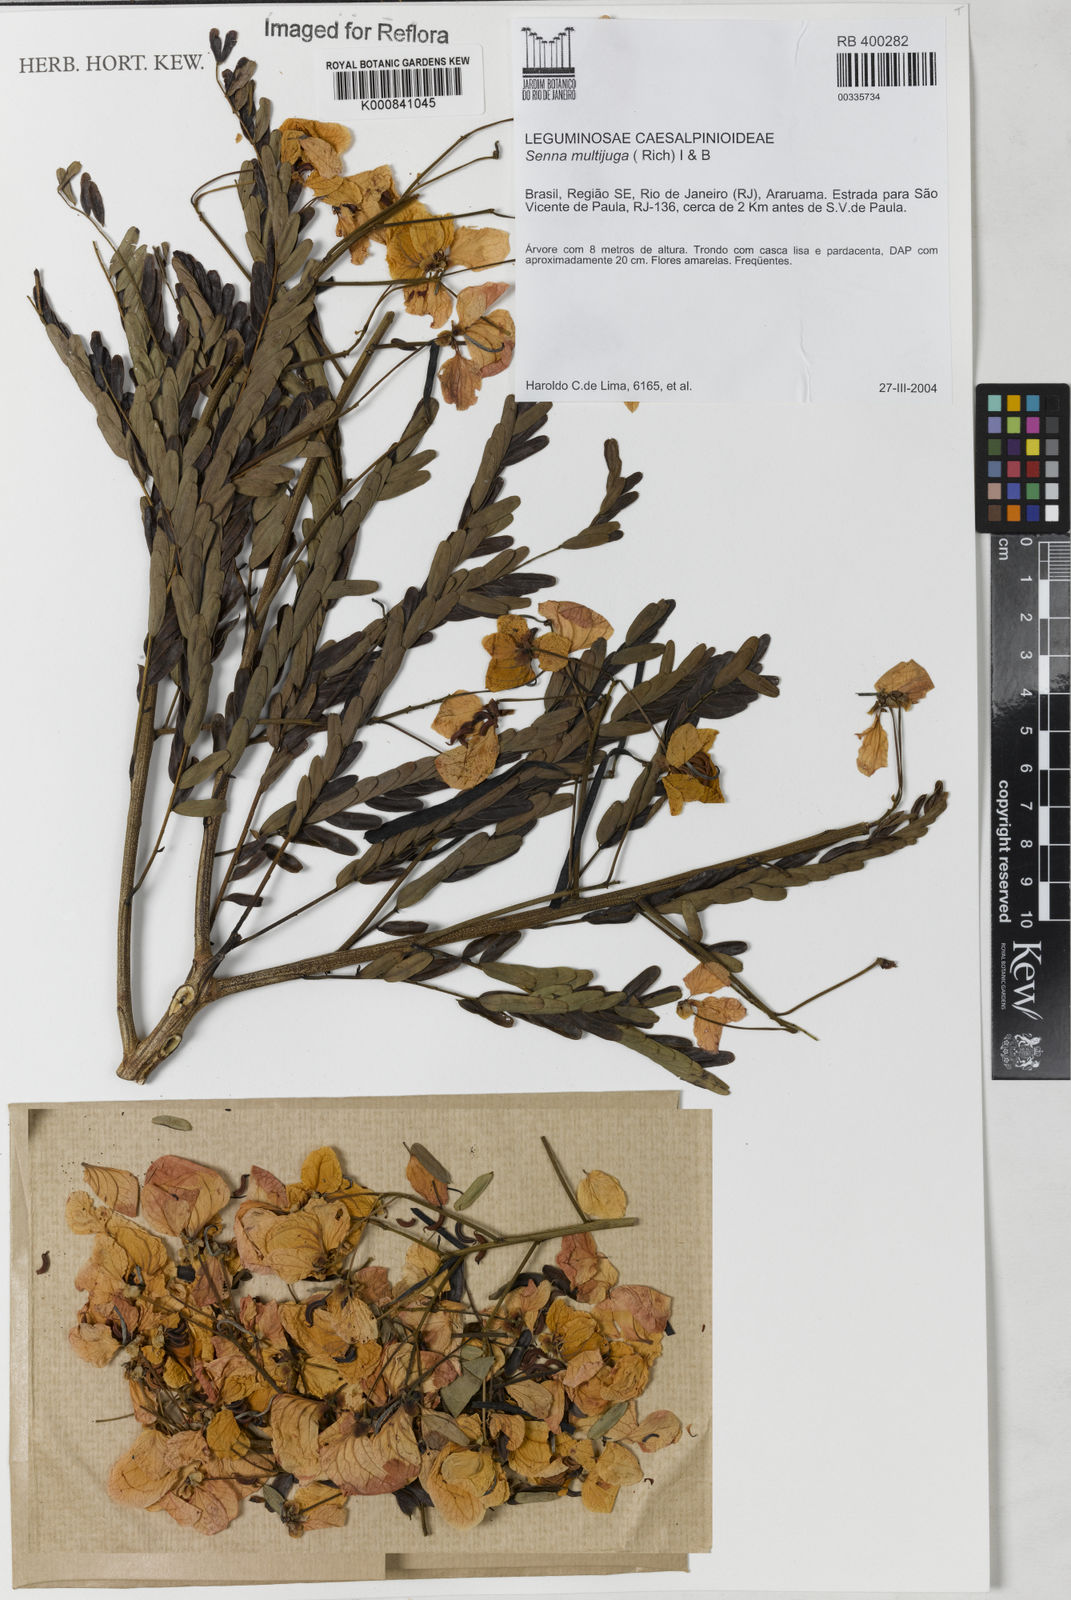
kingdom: Plantae
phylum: Tracheophyta
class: Magnoliopsida
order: Fabales
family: Fabaceae
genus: Senna
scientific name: Senna multijuga
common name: False sicklepod
